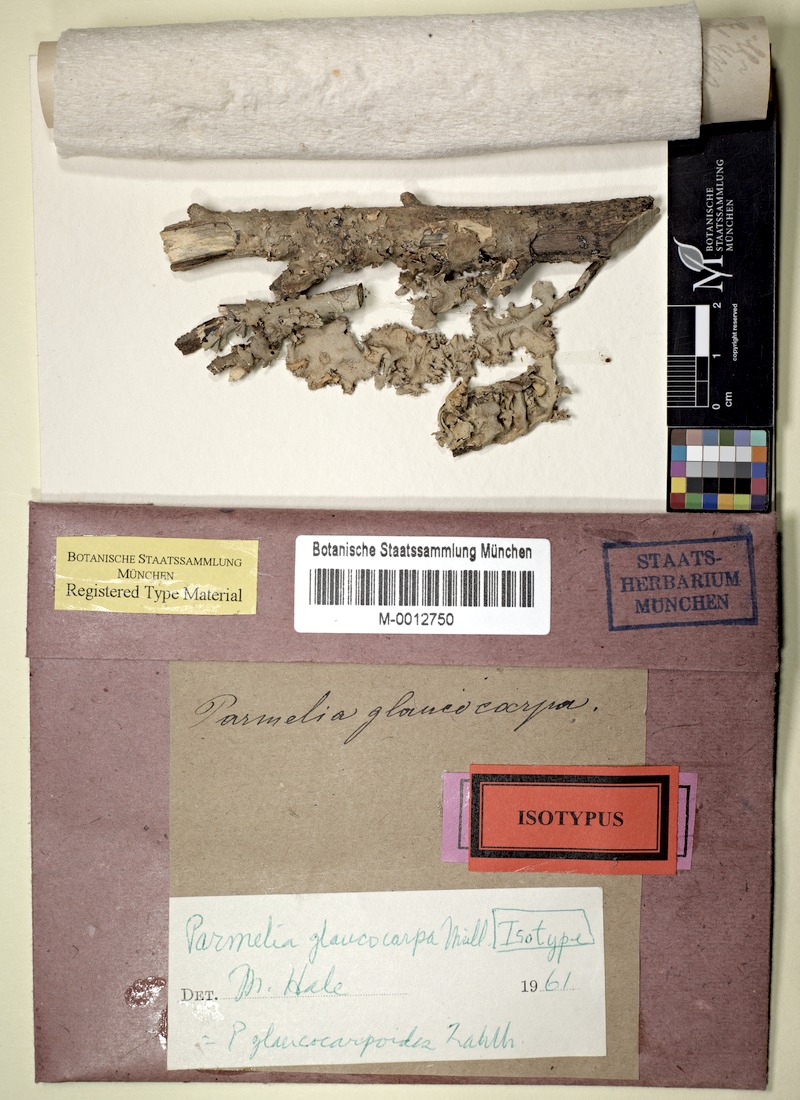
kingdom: Fungi
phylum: Ascomycota
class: Lecanoromycetes
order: Lecanorales
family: Parmeliaceae
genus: Parmotrema
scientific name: Parmotrema glaucocarpoides
